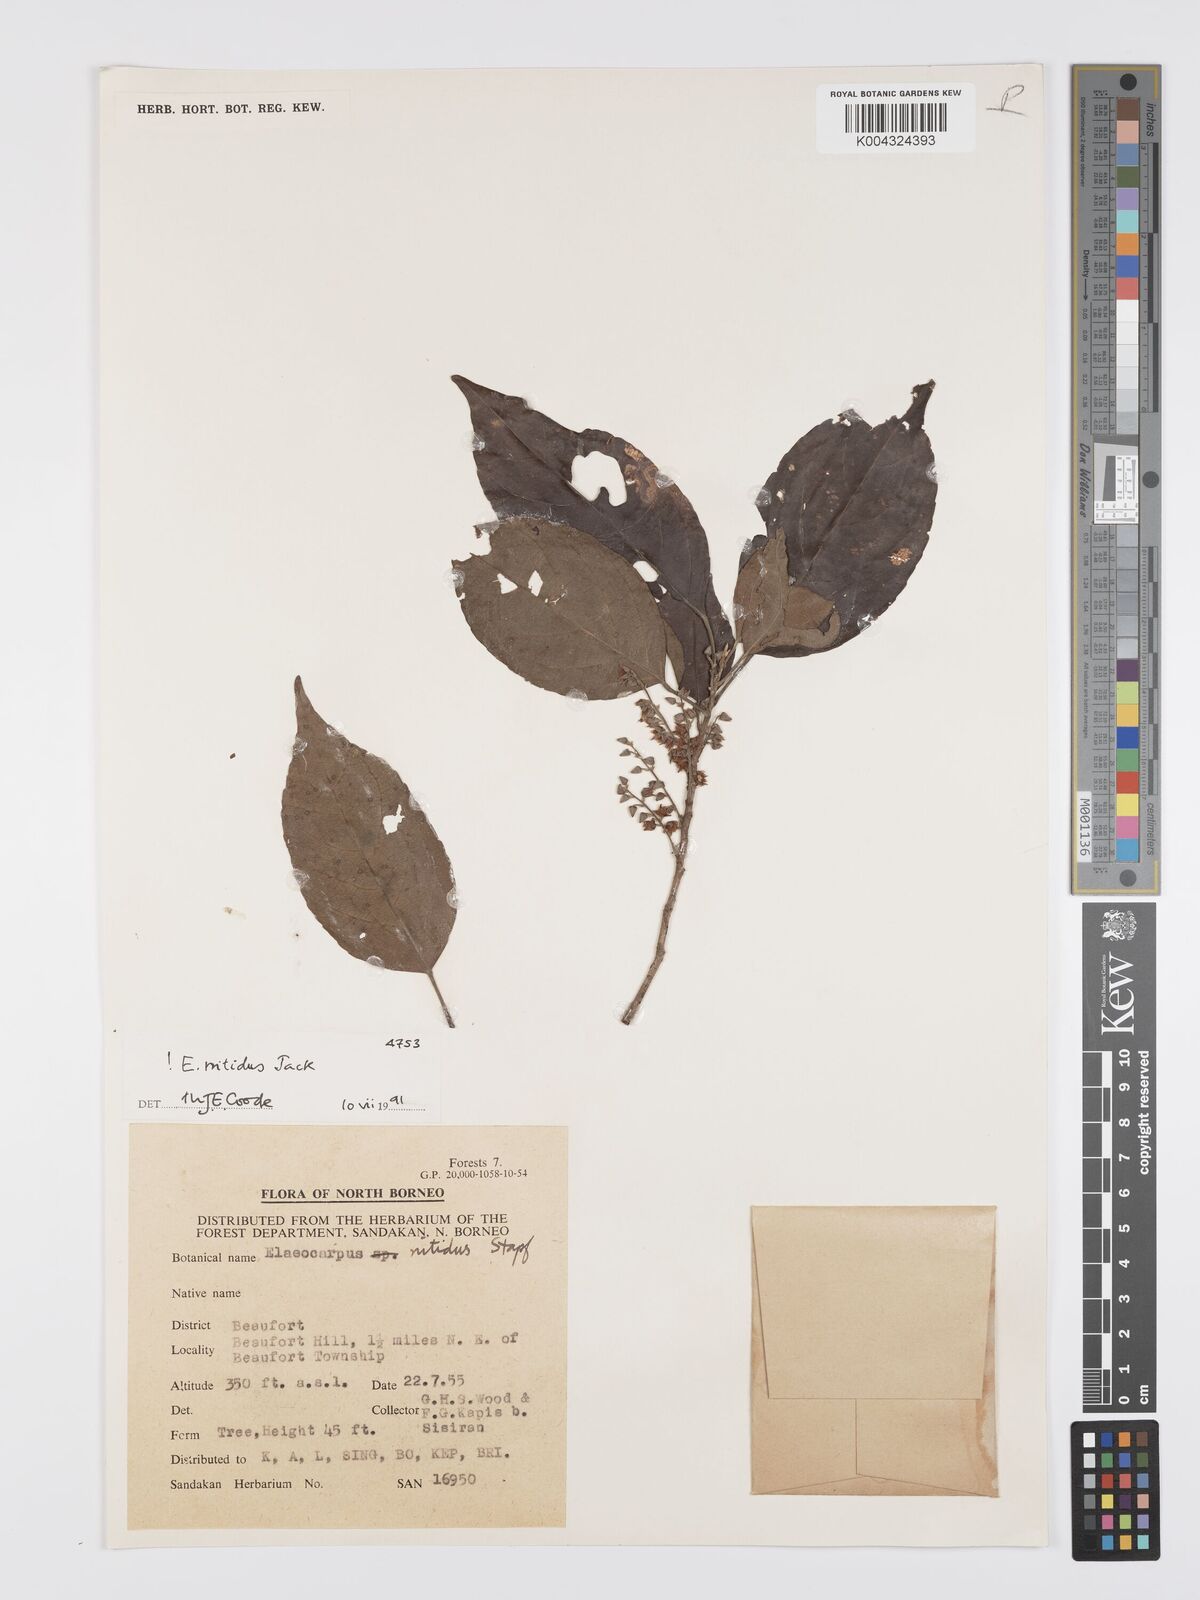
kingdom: Plantae
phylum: Tracheophyta
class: Magnoliopsida
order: Oxalidales
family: Elaeocarpaceae
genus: Elaeocarpus
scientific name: Elaeocarpus nitidus
